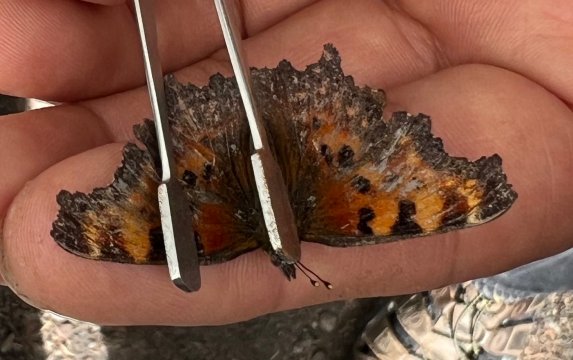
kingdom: Animalia
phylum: Arthropoda
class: Insecta
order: Lepidoptera
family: Nymphalidae
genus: Polygonia
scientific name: Polygonia faunus
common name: Green Comma
